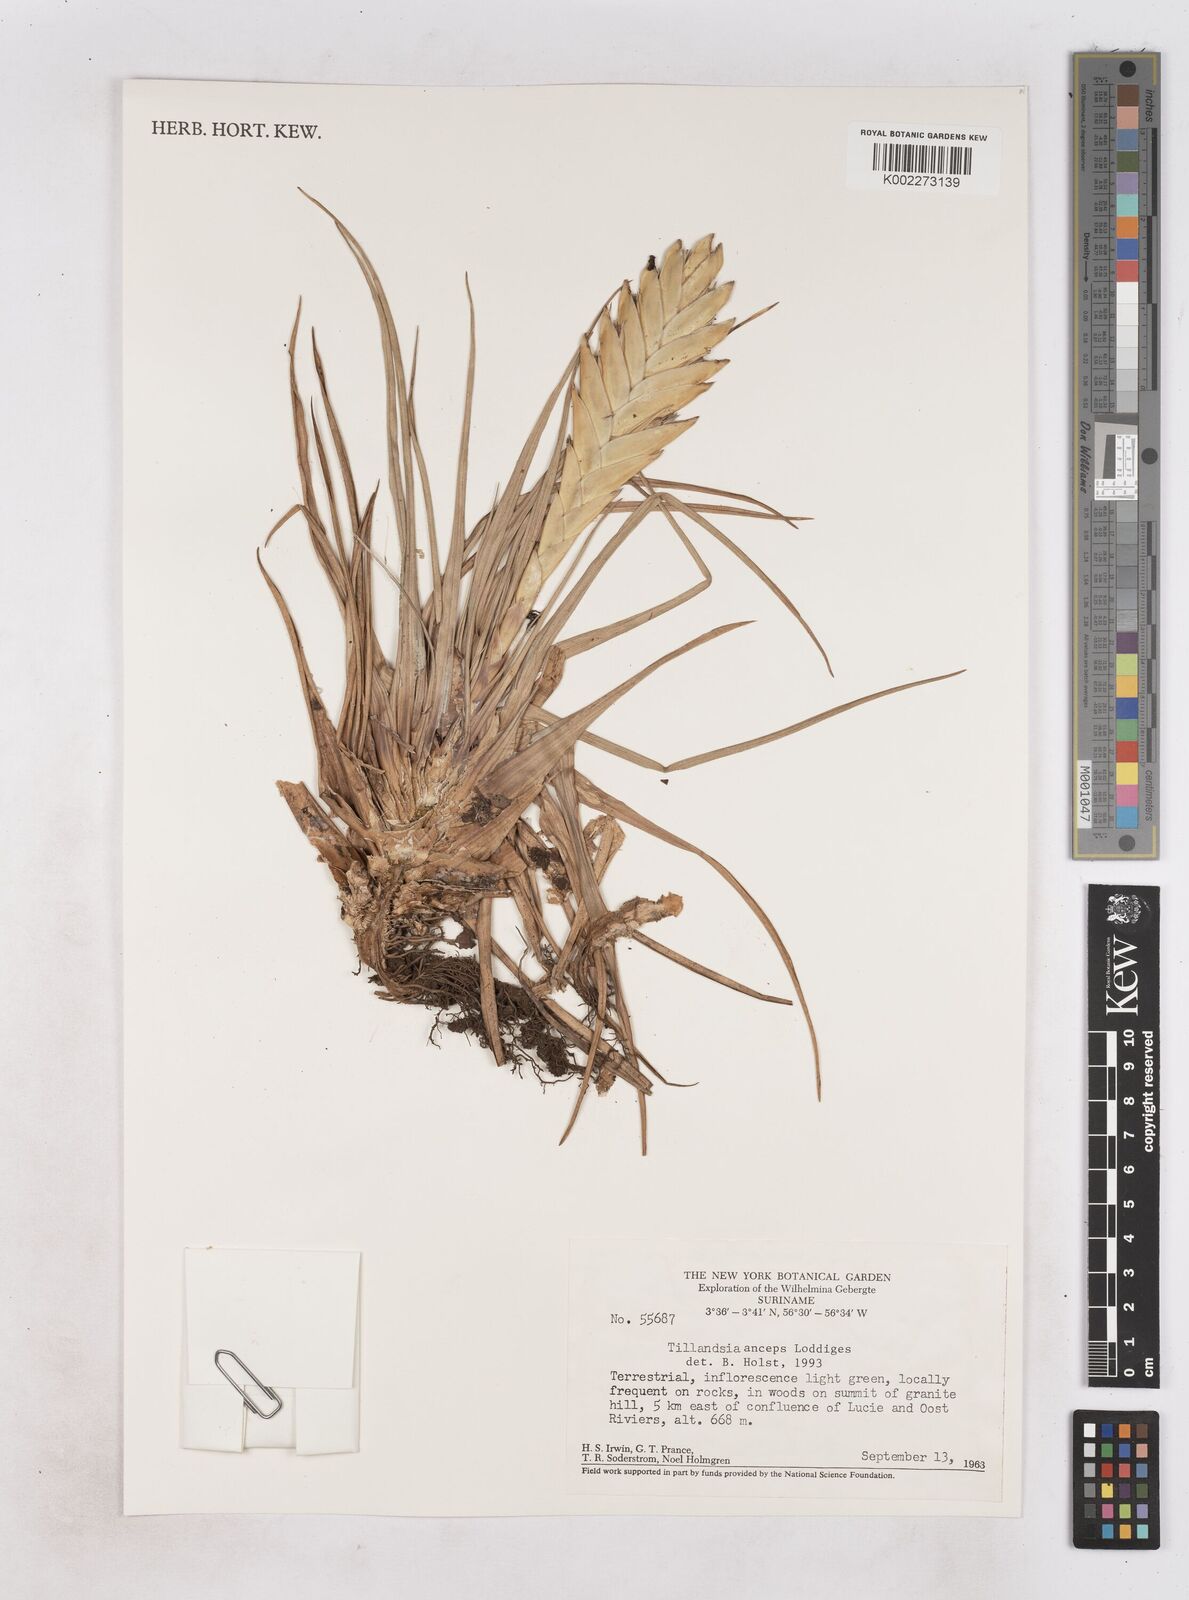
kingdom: Plantae
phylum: Tracheophyta
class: Liliopsida
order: Poales
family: Bromeliaceae
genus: Wallisia
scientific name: Wallisia anceps
